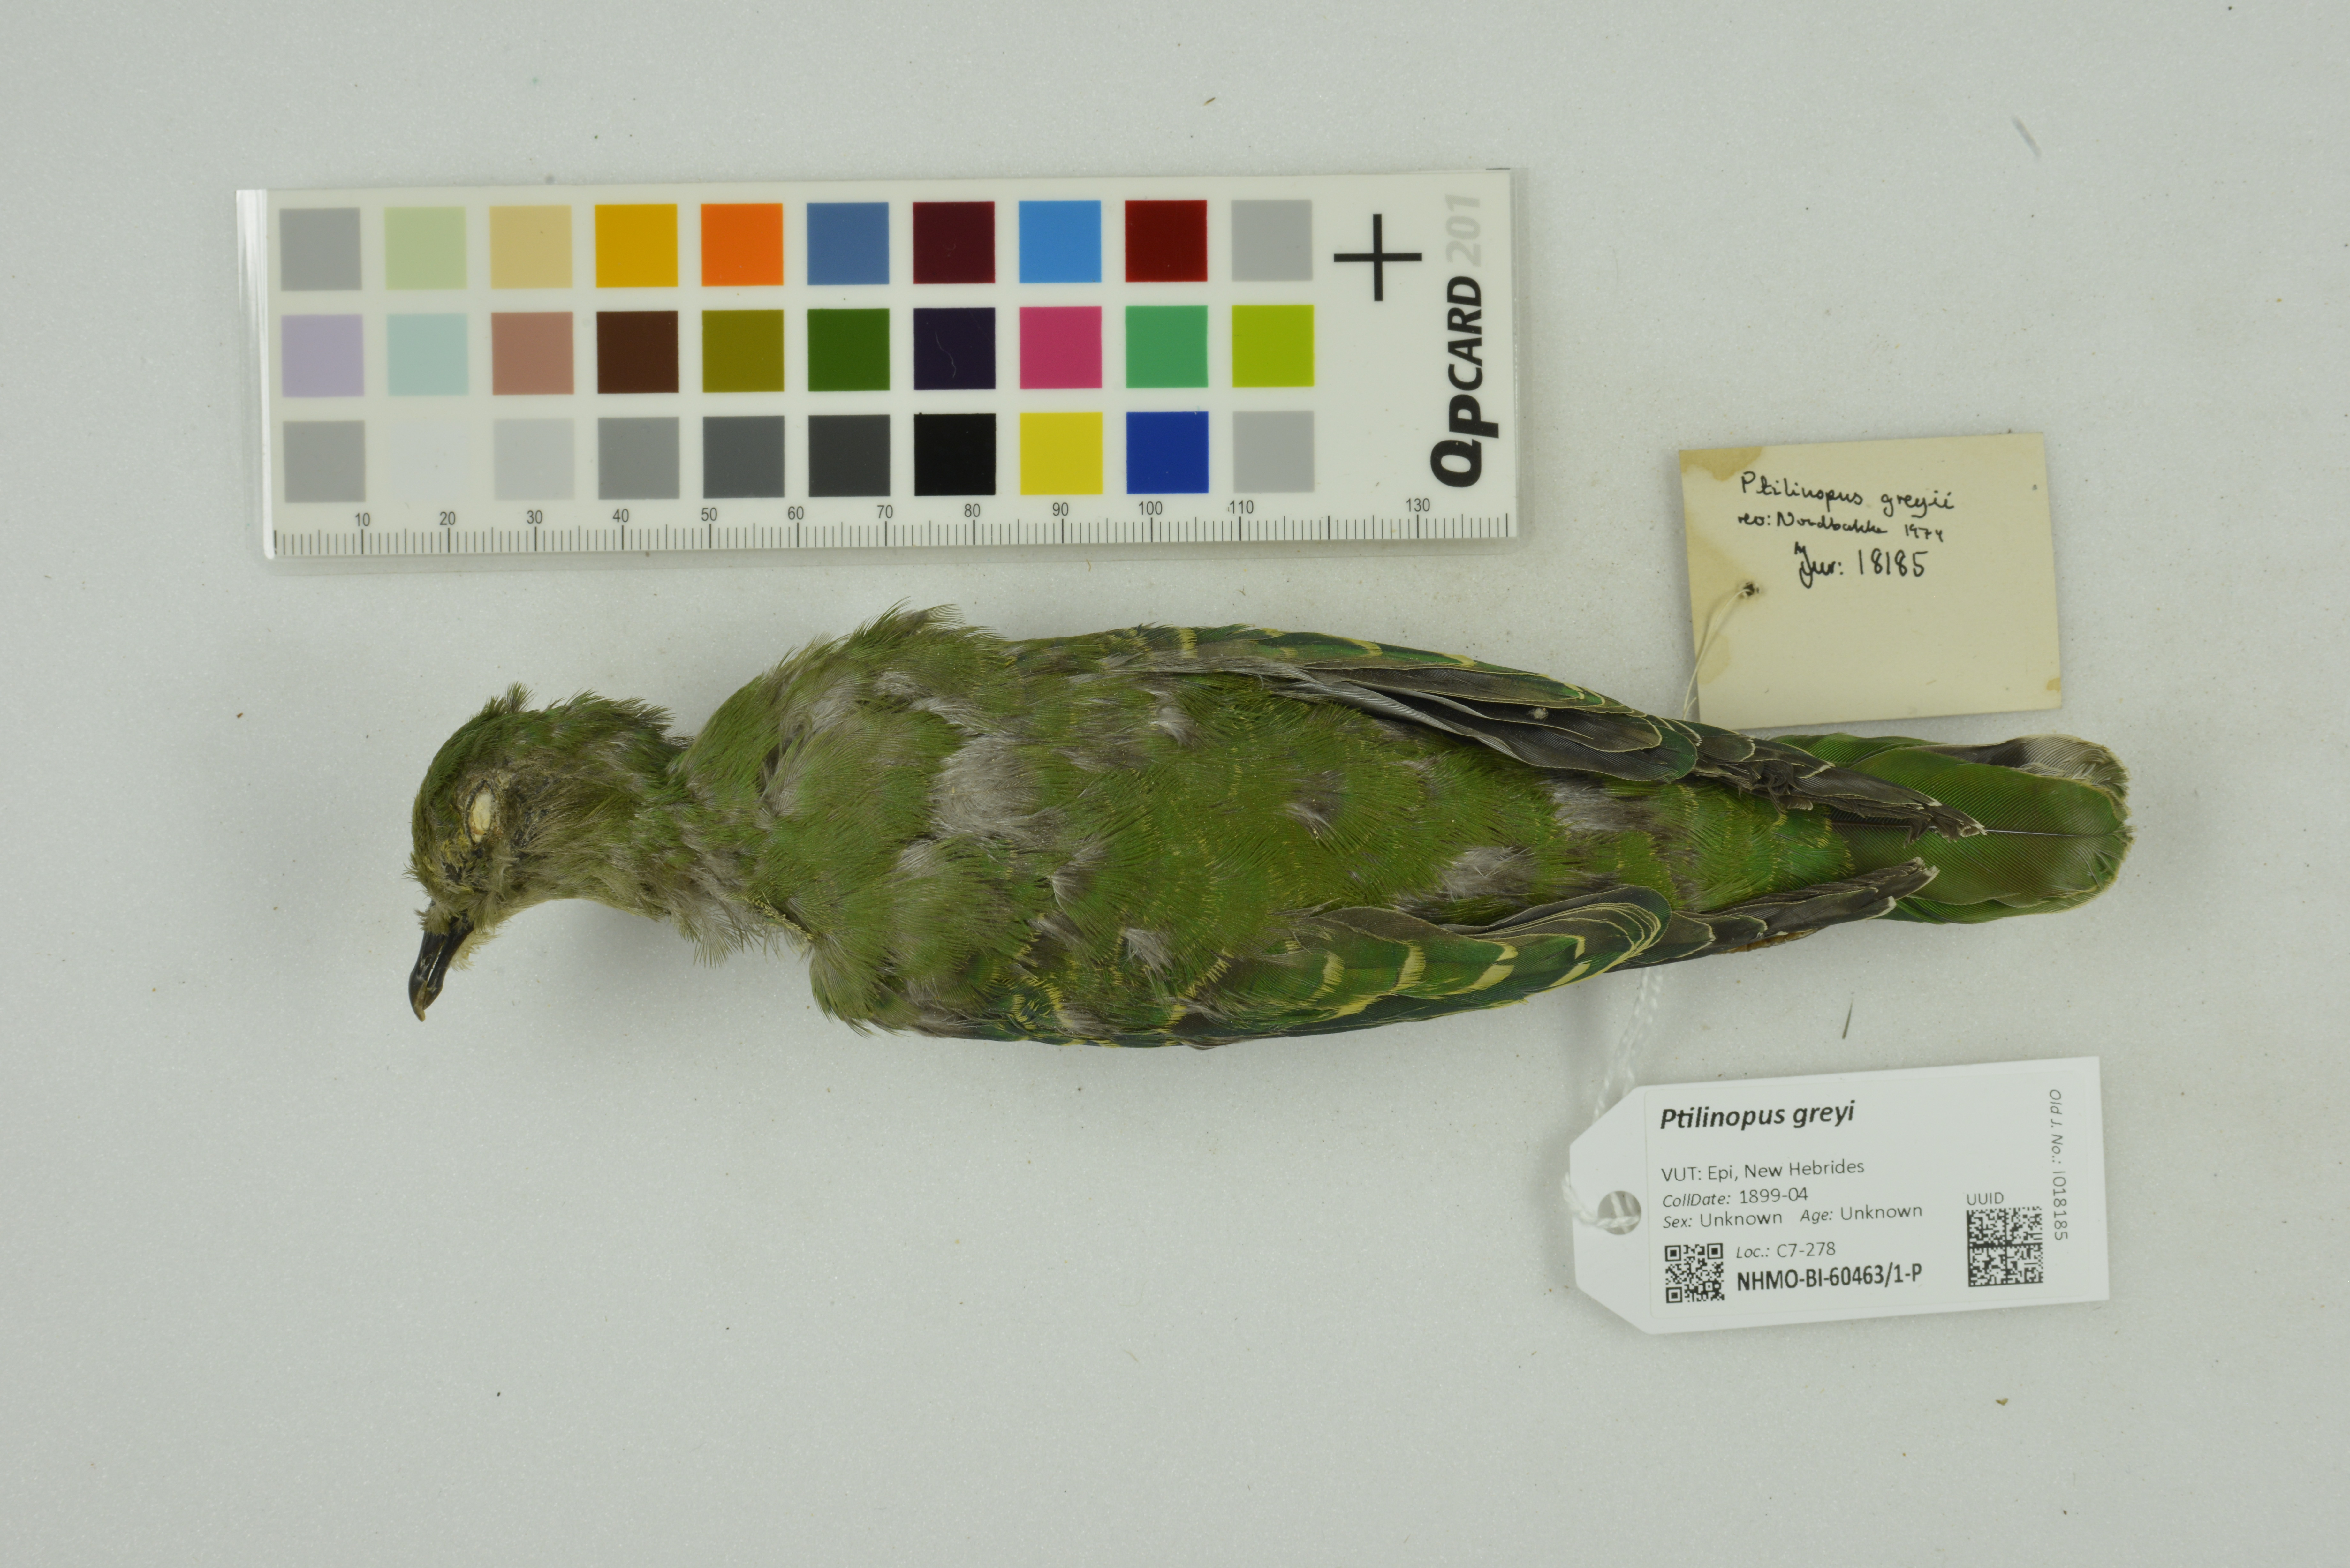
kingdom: Animalia
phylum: Chordata
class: Aves
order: Columbiformes
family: Columbidae
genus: Ptilinopus
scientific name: Ptilinopus greyi
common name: Red-bellied fruit-dove
